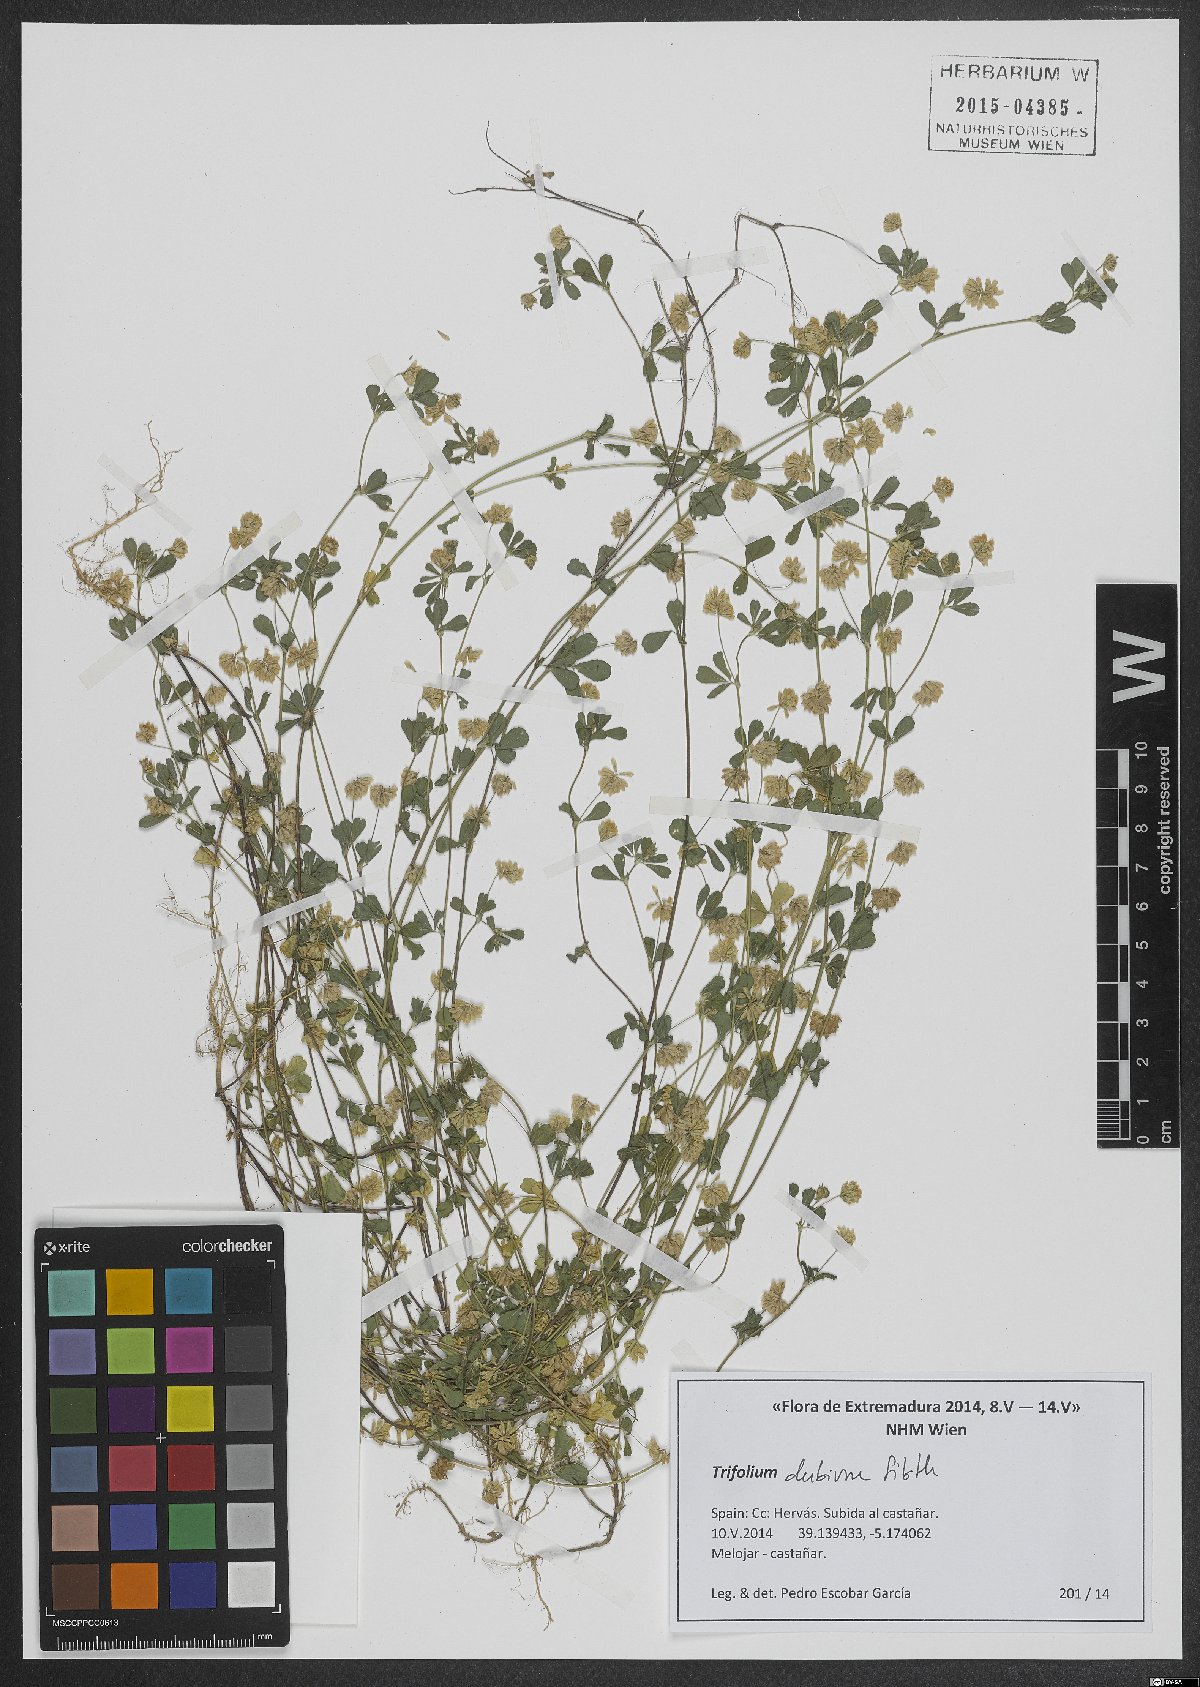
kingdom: Plantae
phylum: Tracheophyta
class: Magnoliopsida
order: Fabales
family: Fabaceae
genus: Trifolium
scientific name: Trifolium dubium
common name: Suckling clover
